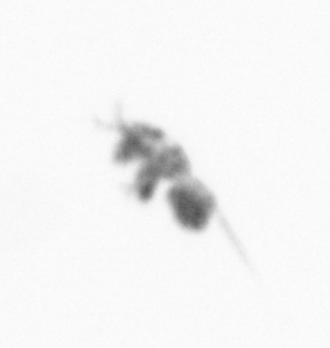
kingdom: Animalia
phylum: Arthropoda
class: Copepoda
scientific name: Copepoda
